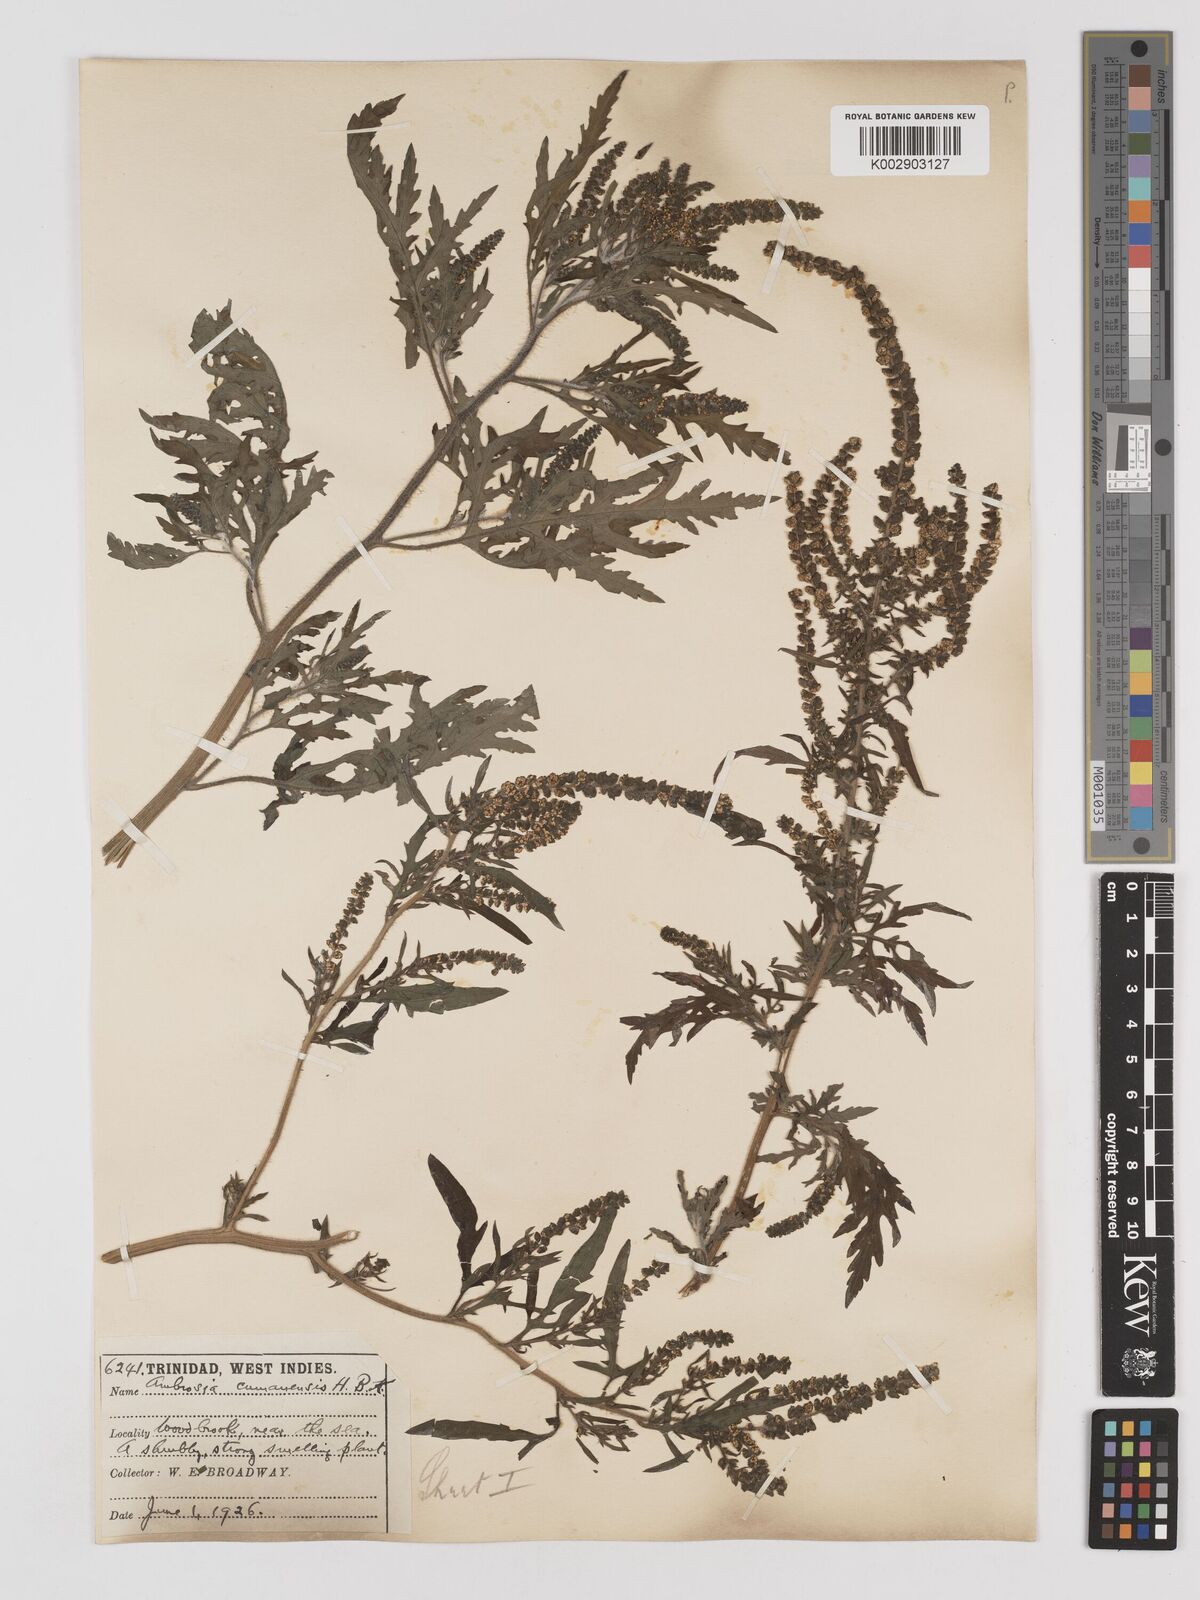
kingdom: Plantae
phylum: Tracheophyta
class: Magnoliopsida
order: Asterales
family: Asteraceae
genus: Ambrosia
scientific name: Ambrosia cumanensis
